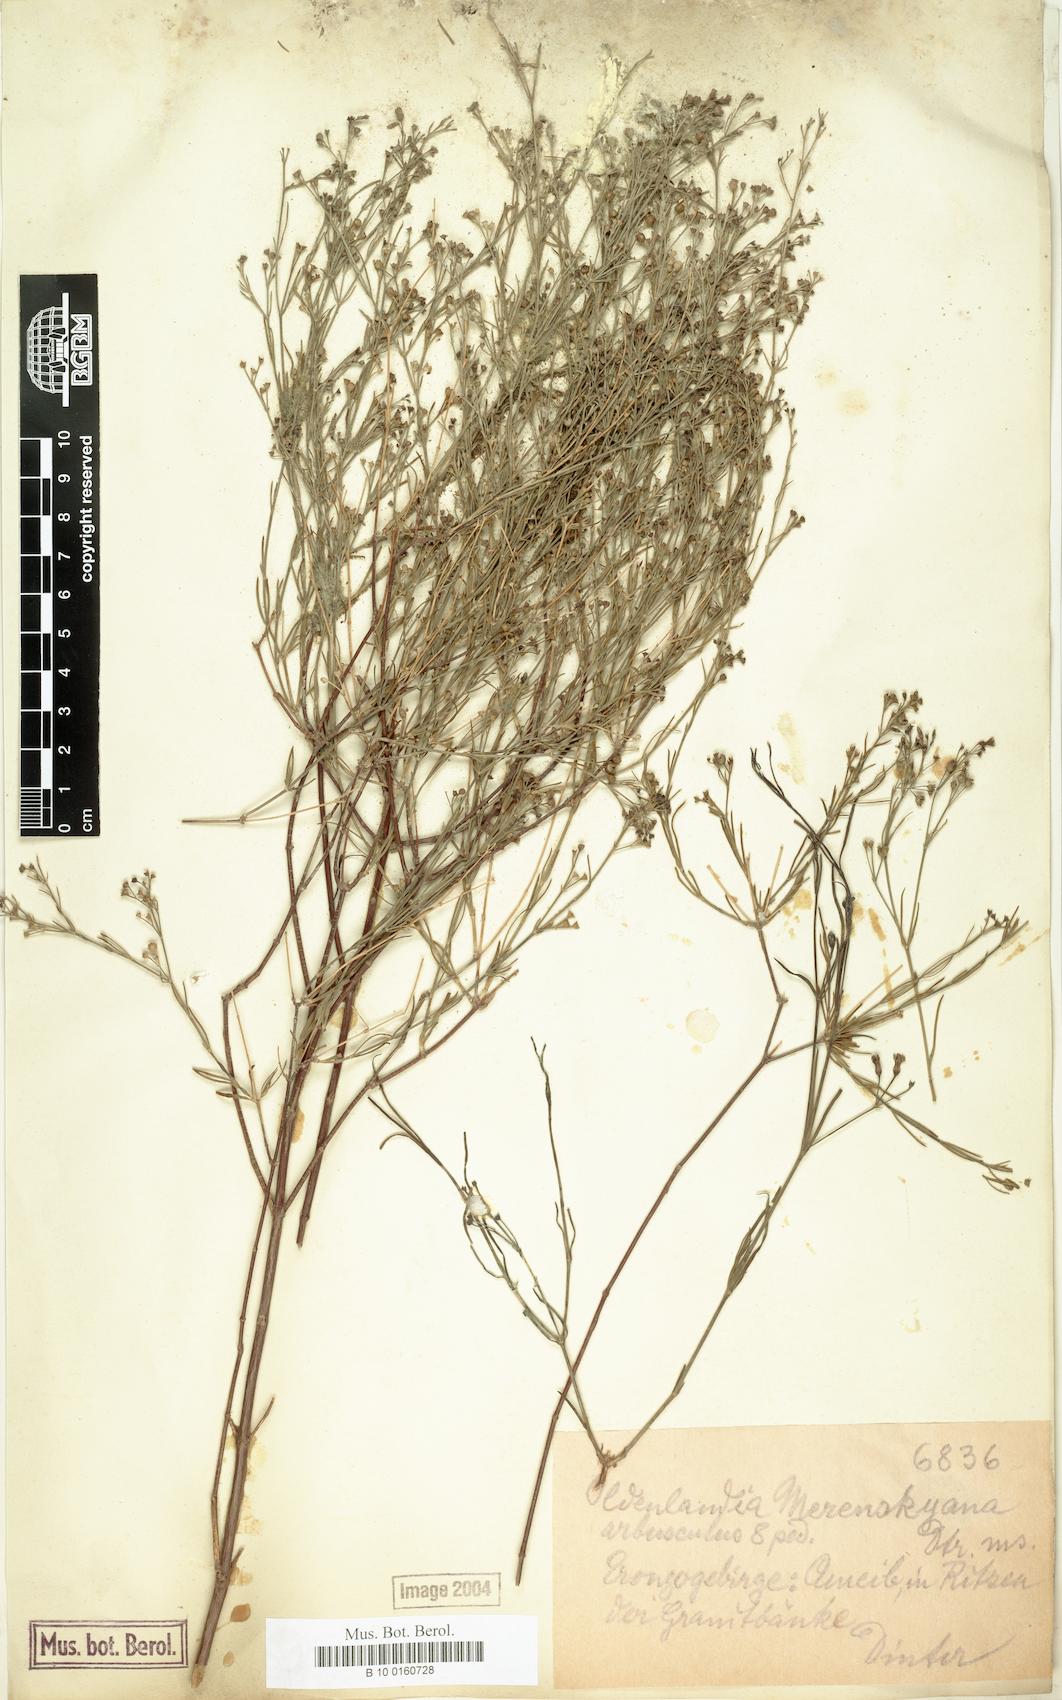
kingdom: Plantae
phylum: Tracheophyta
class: Magnoliopsida
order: Gentianales
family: Rubiaceae
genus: Amphiasma
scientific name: Amphiasma merenskyanum
